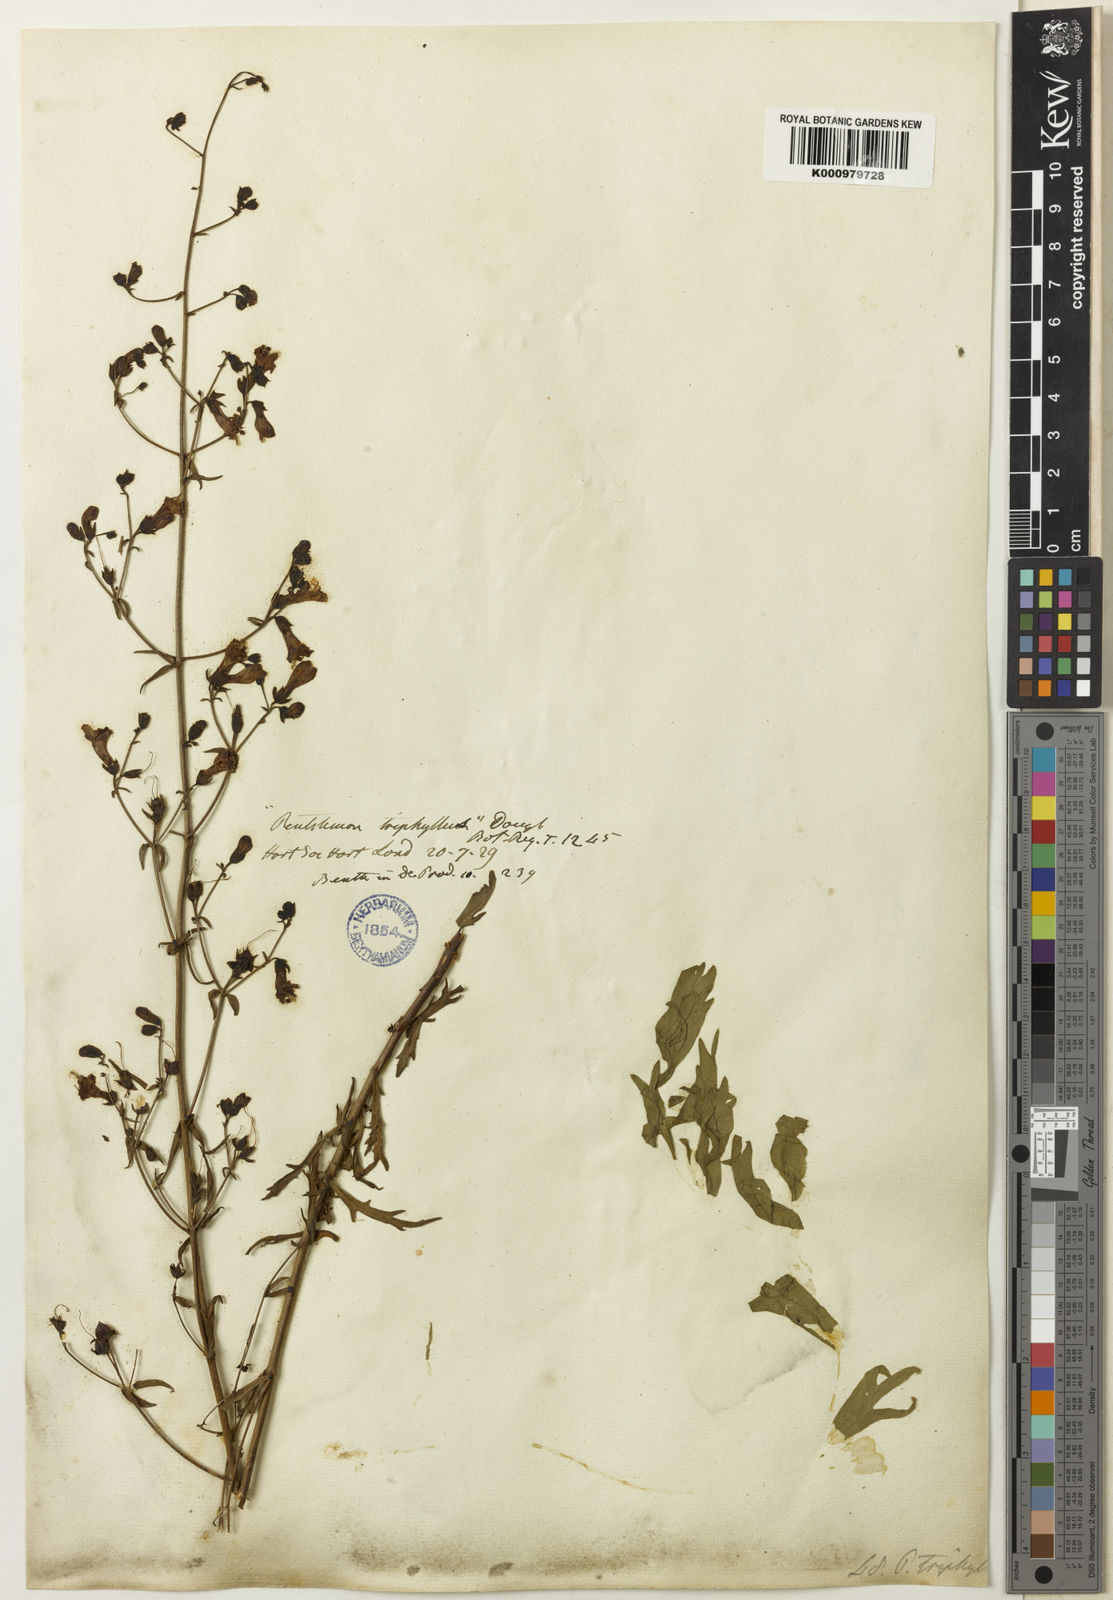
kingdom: Plantae
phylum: Tracheophyta
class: Magnoliopsida
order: Lamiales
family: Plantaginaceae
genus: Penstemon
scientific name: Penstemon triphyllus
